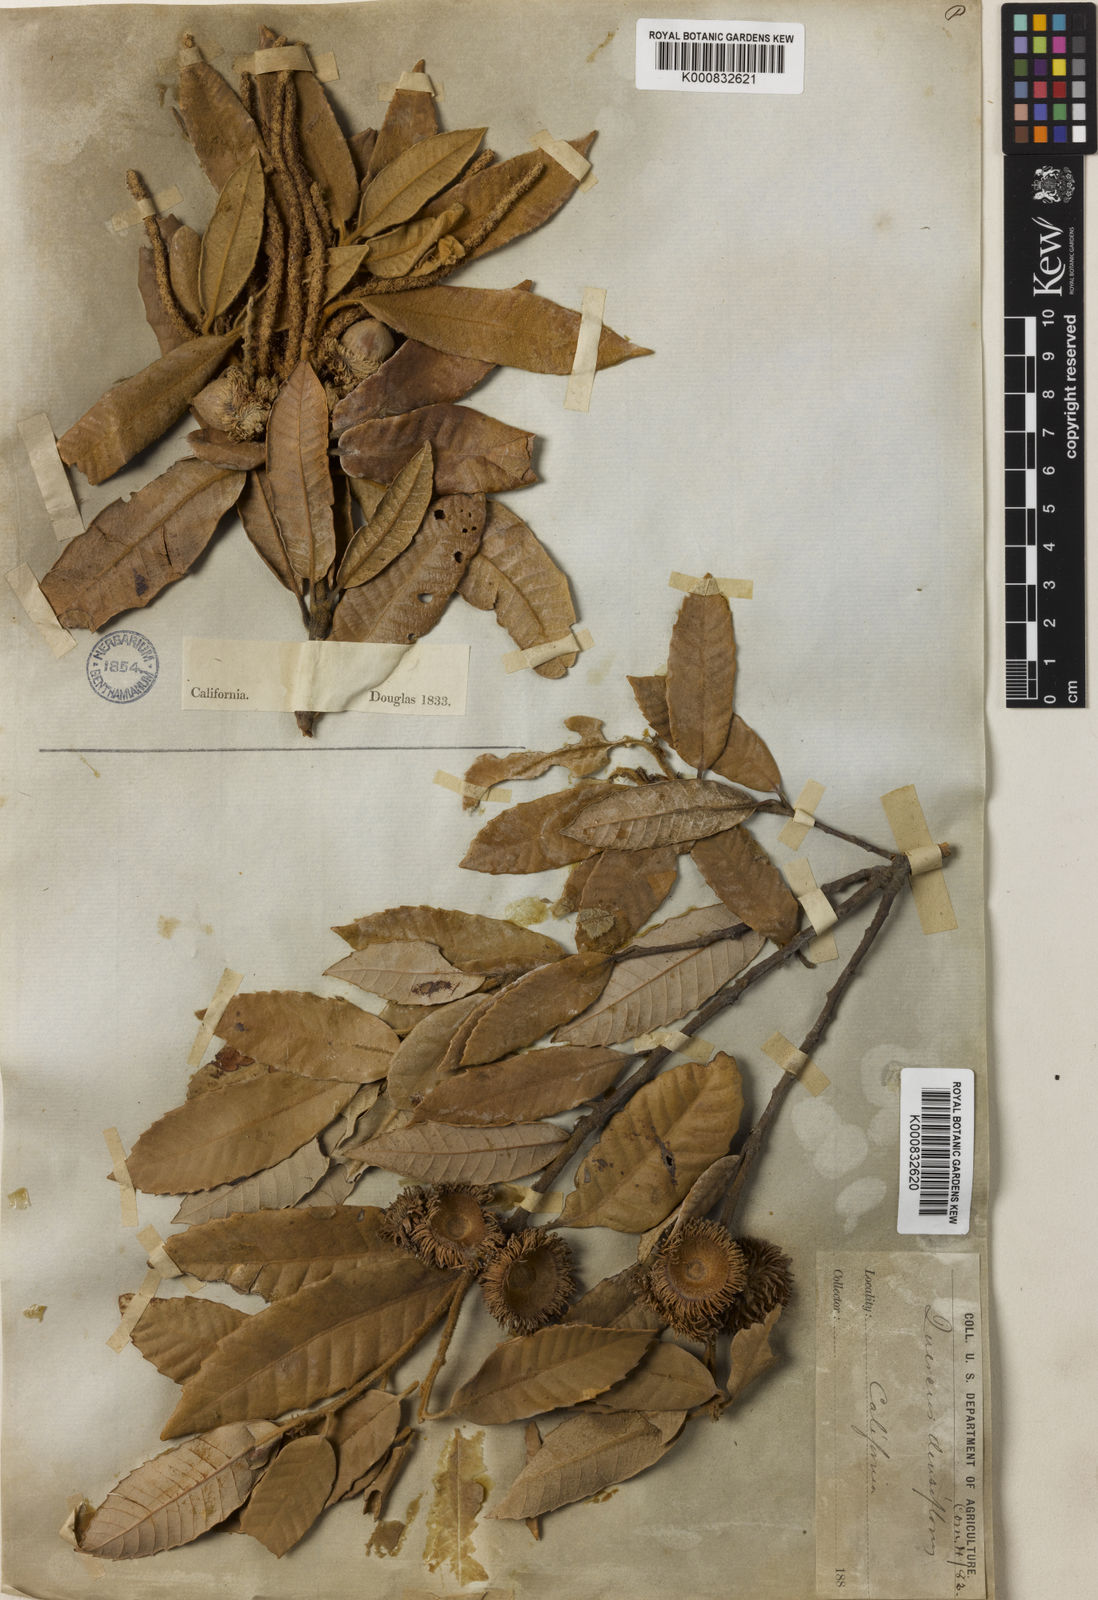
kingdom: Plantae
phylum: Tracheophyta
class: Magnoliopsida
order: Fagales
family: Fagaceae
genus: Notholithocarpus
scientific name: Notholithocarpus
